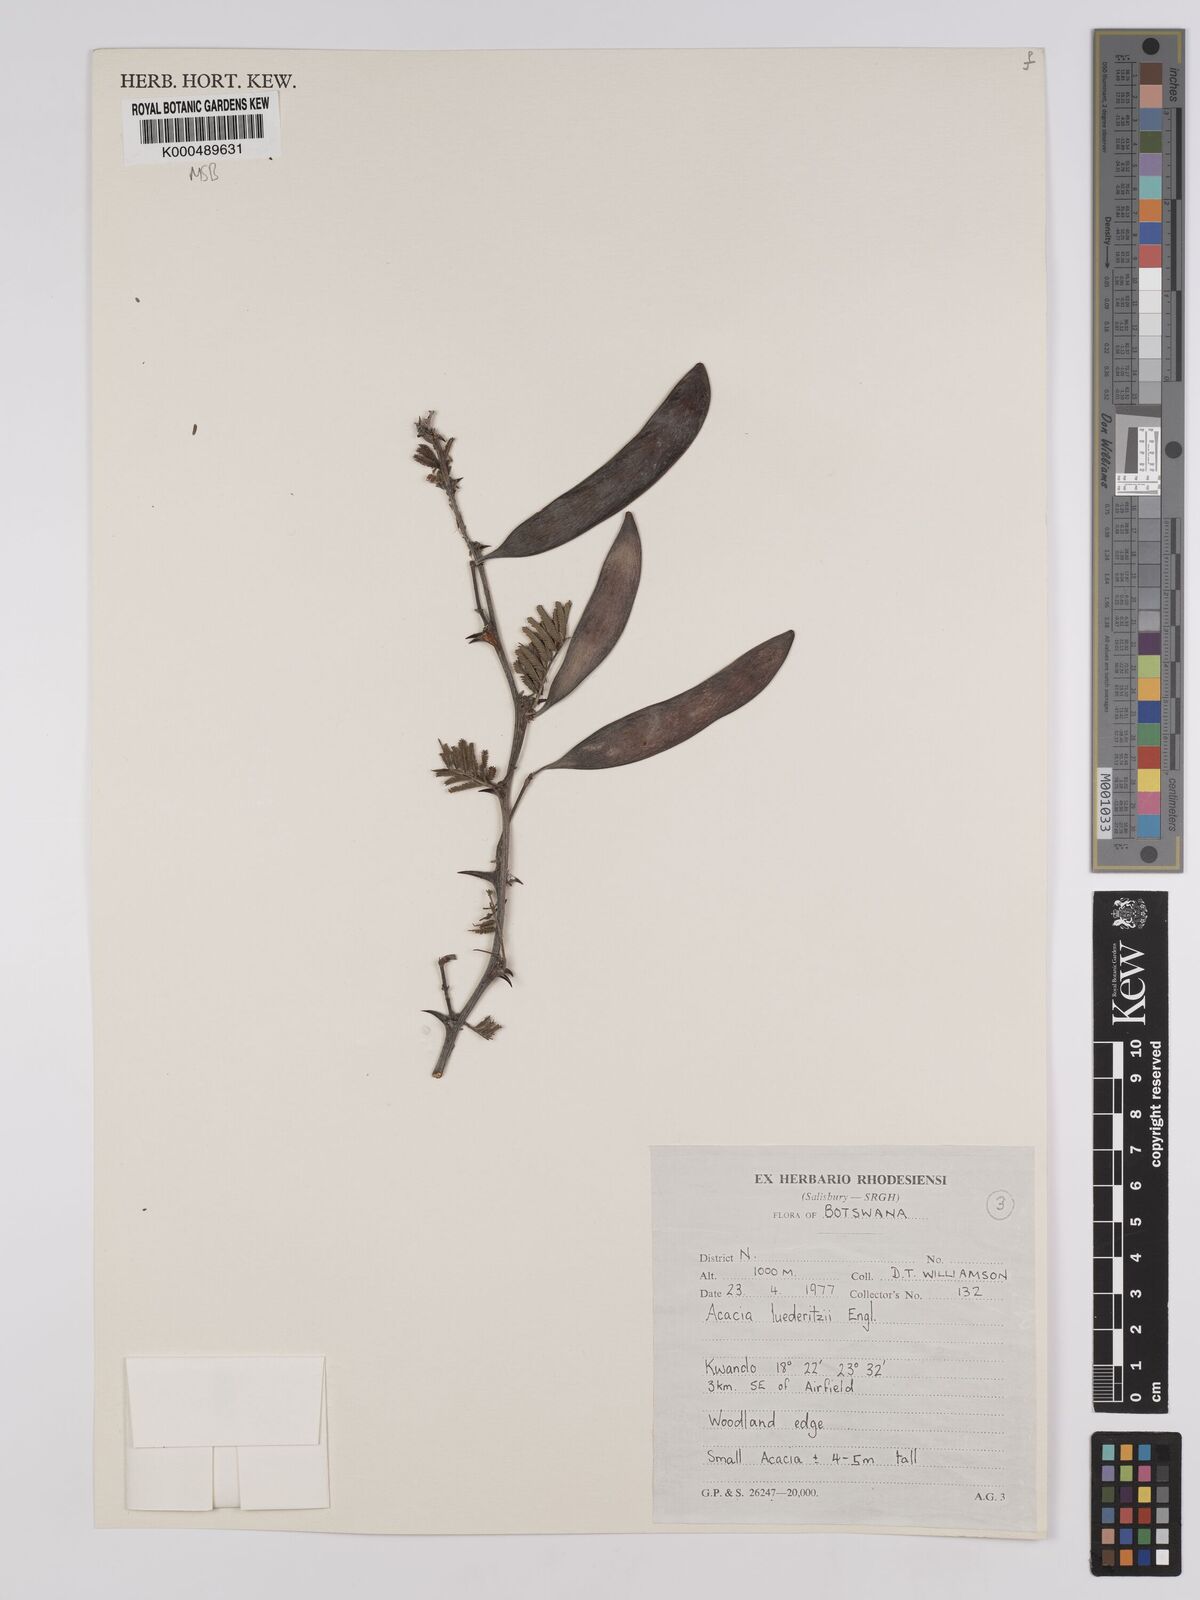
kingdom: Plantae
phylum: Tracheophyta
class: Magnoliopsida
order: Fabales
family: Fabaceae
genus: Vachellia
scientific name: Vachellia
